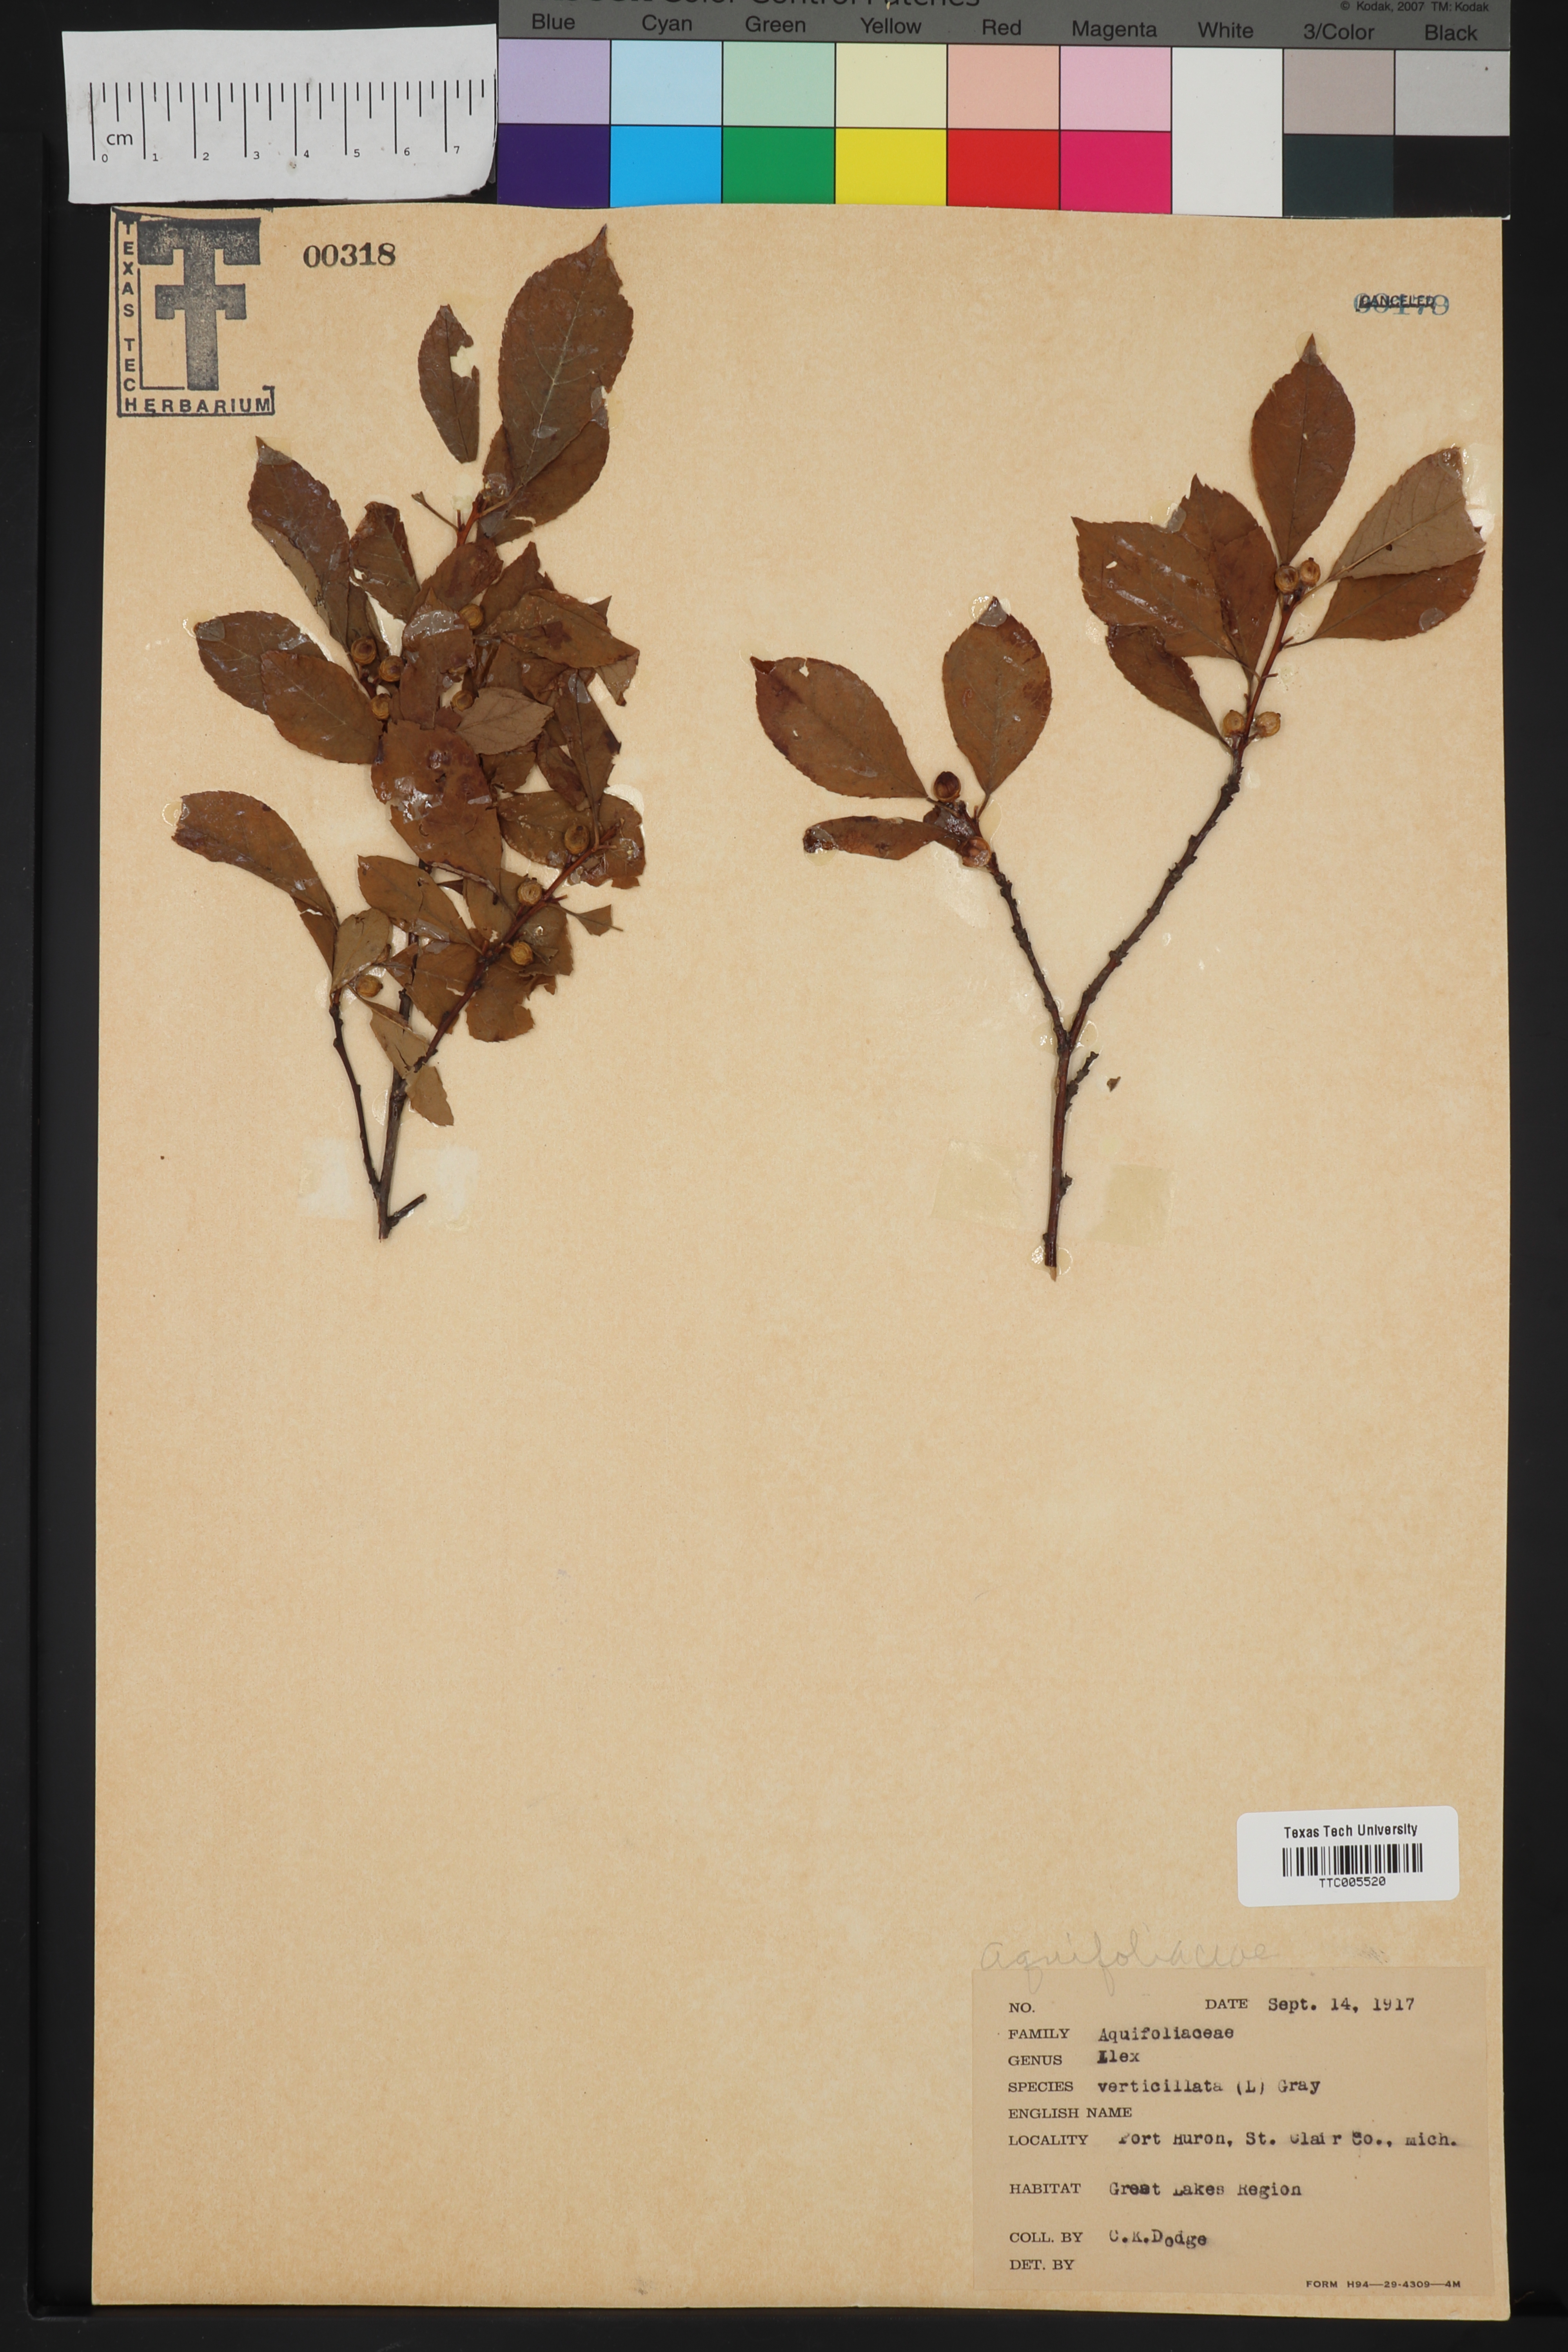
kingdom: Plantae
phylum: Tracheophyta
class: Magnoliopsida
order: Aquifoliales
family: Aquifoliaceae
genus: Ilex
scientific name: Ilex verticillata
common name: Virginia winterberry
